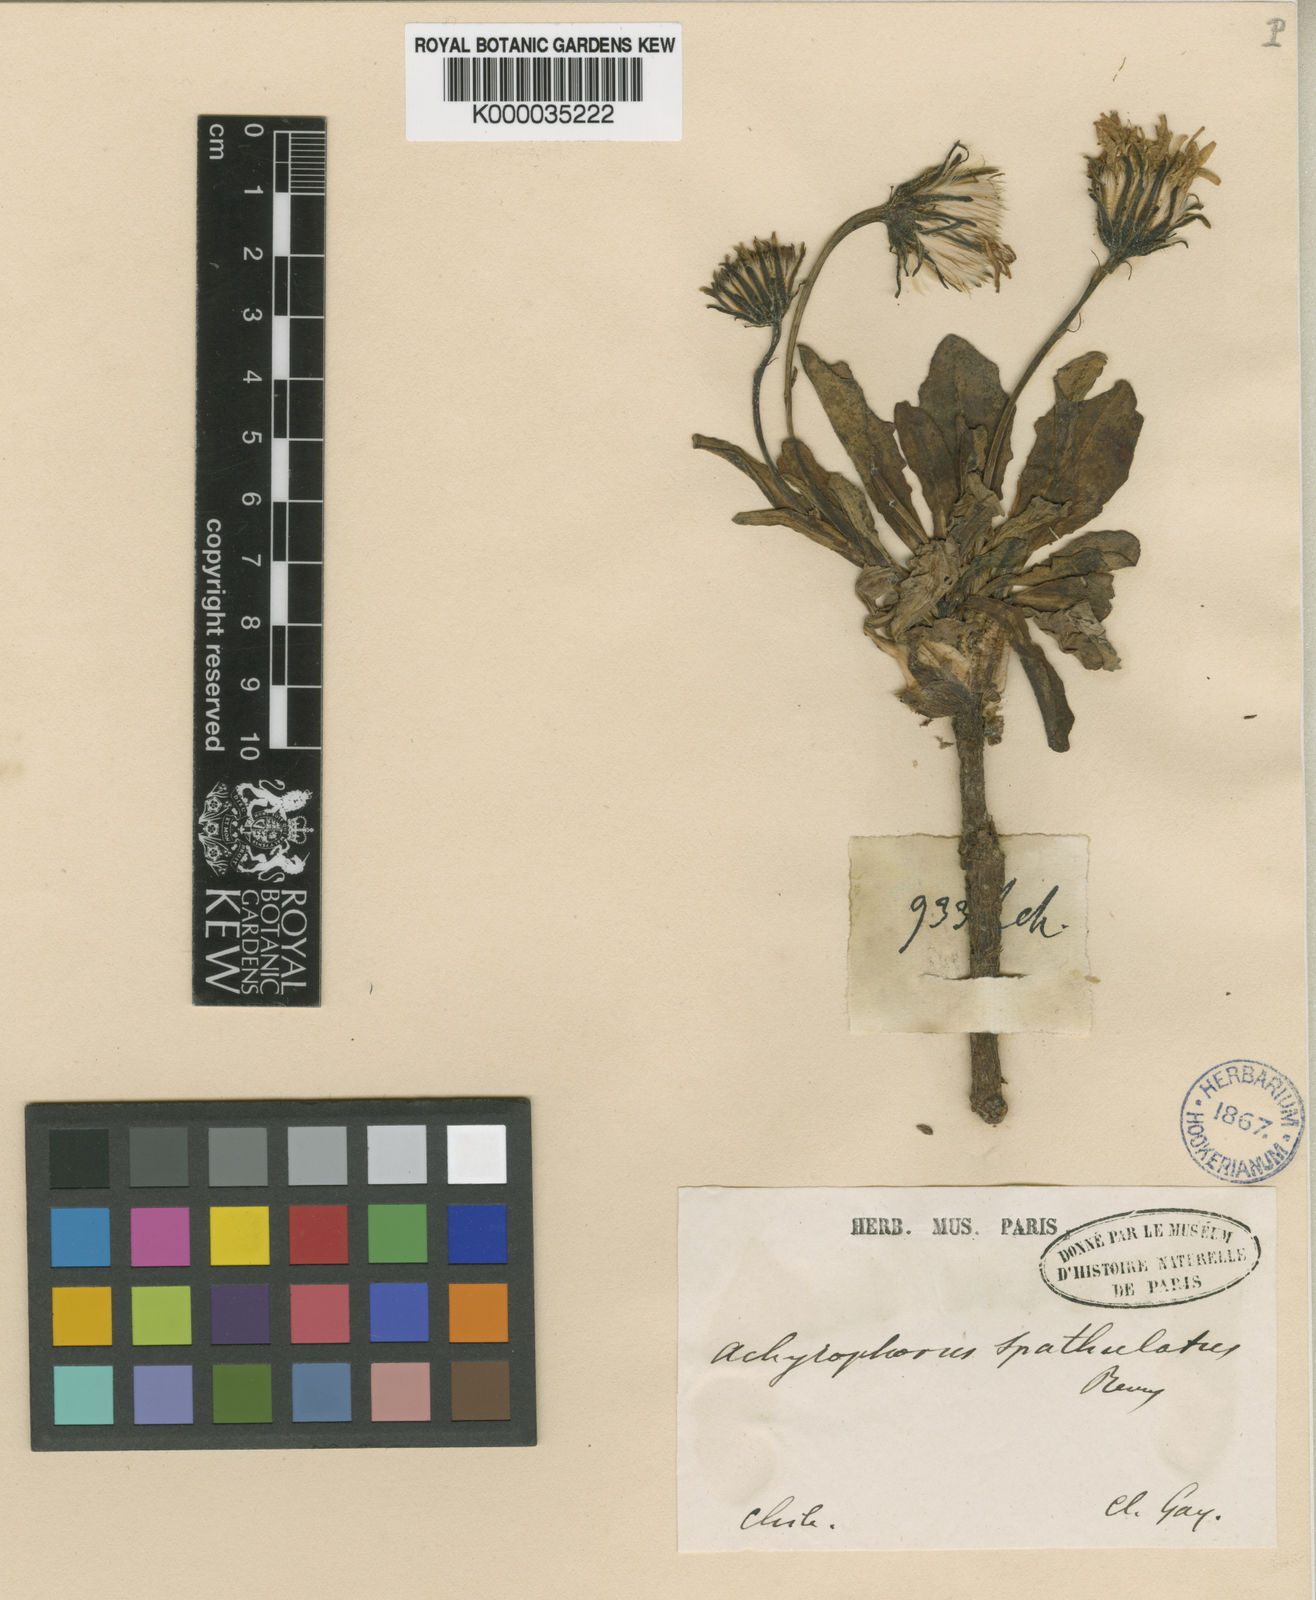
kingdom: Plantae
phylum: Tracheophyta
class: Magnoliopsida
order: Asterales
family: Asteraceae
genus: Hypochaeris
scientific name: Hypochaeris spathulata
